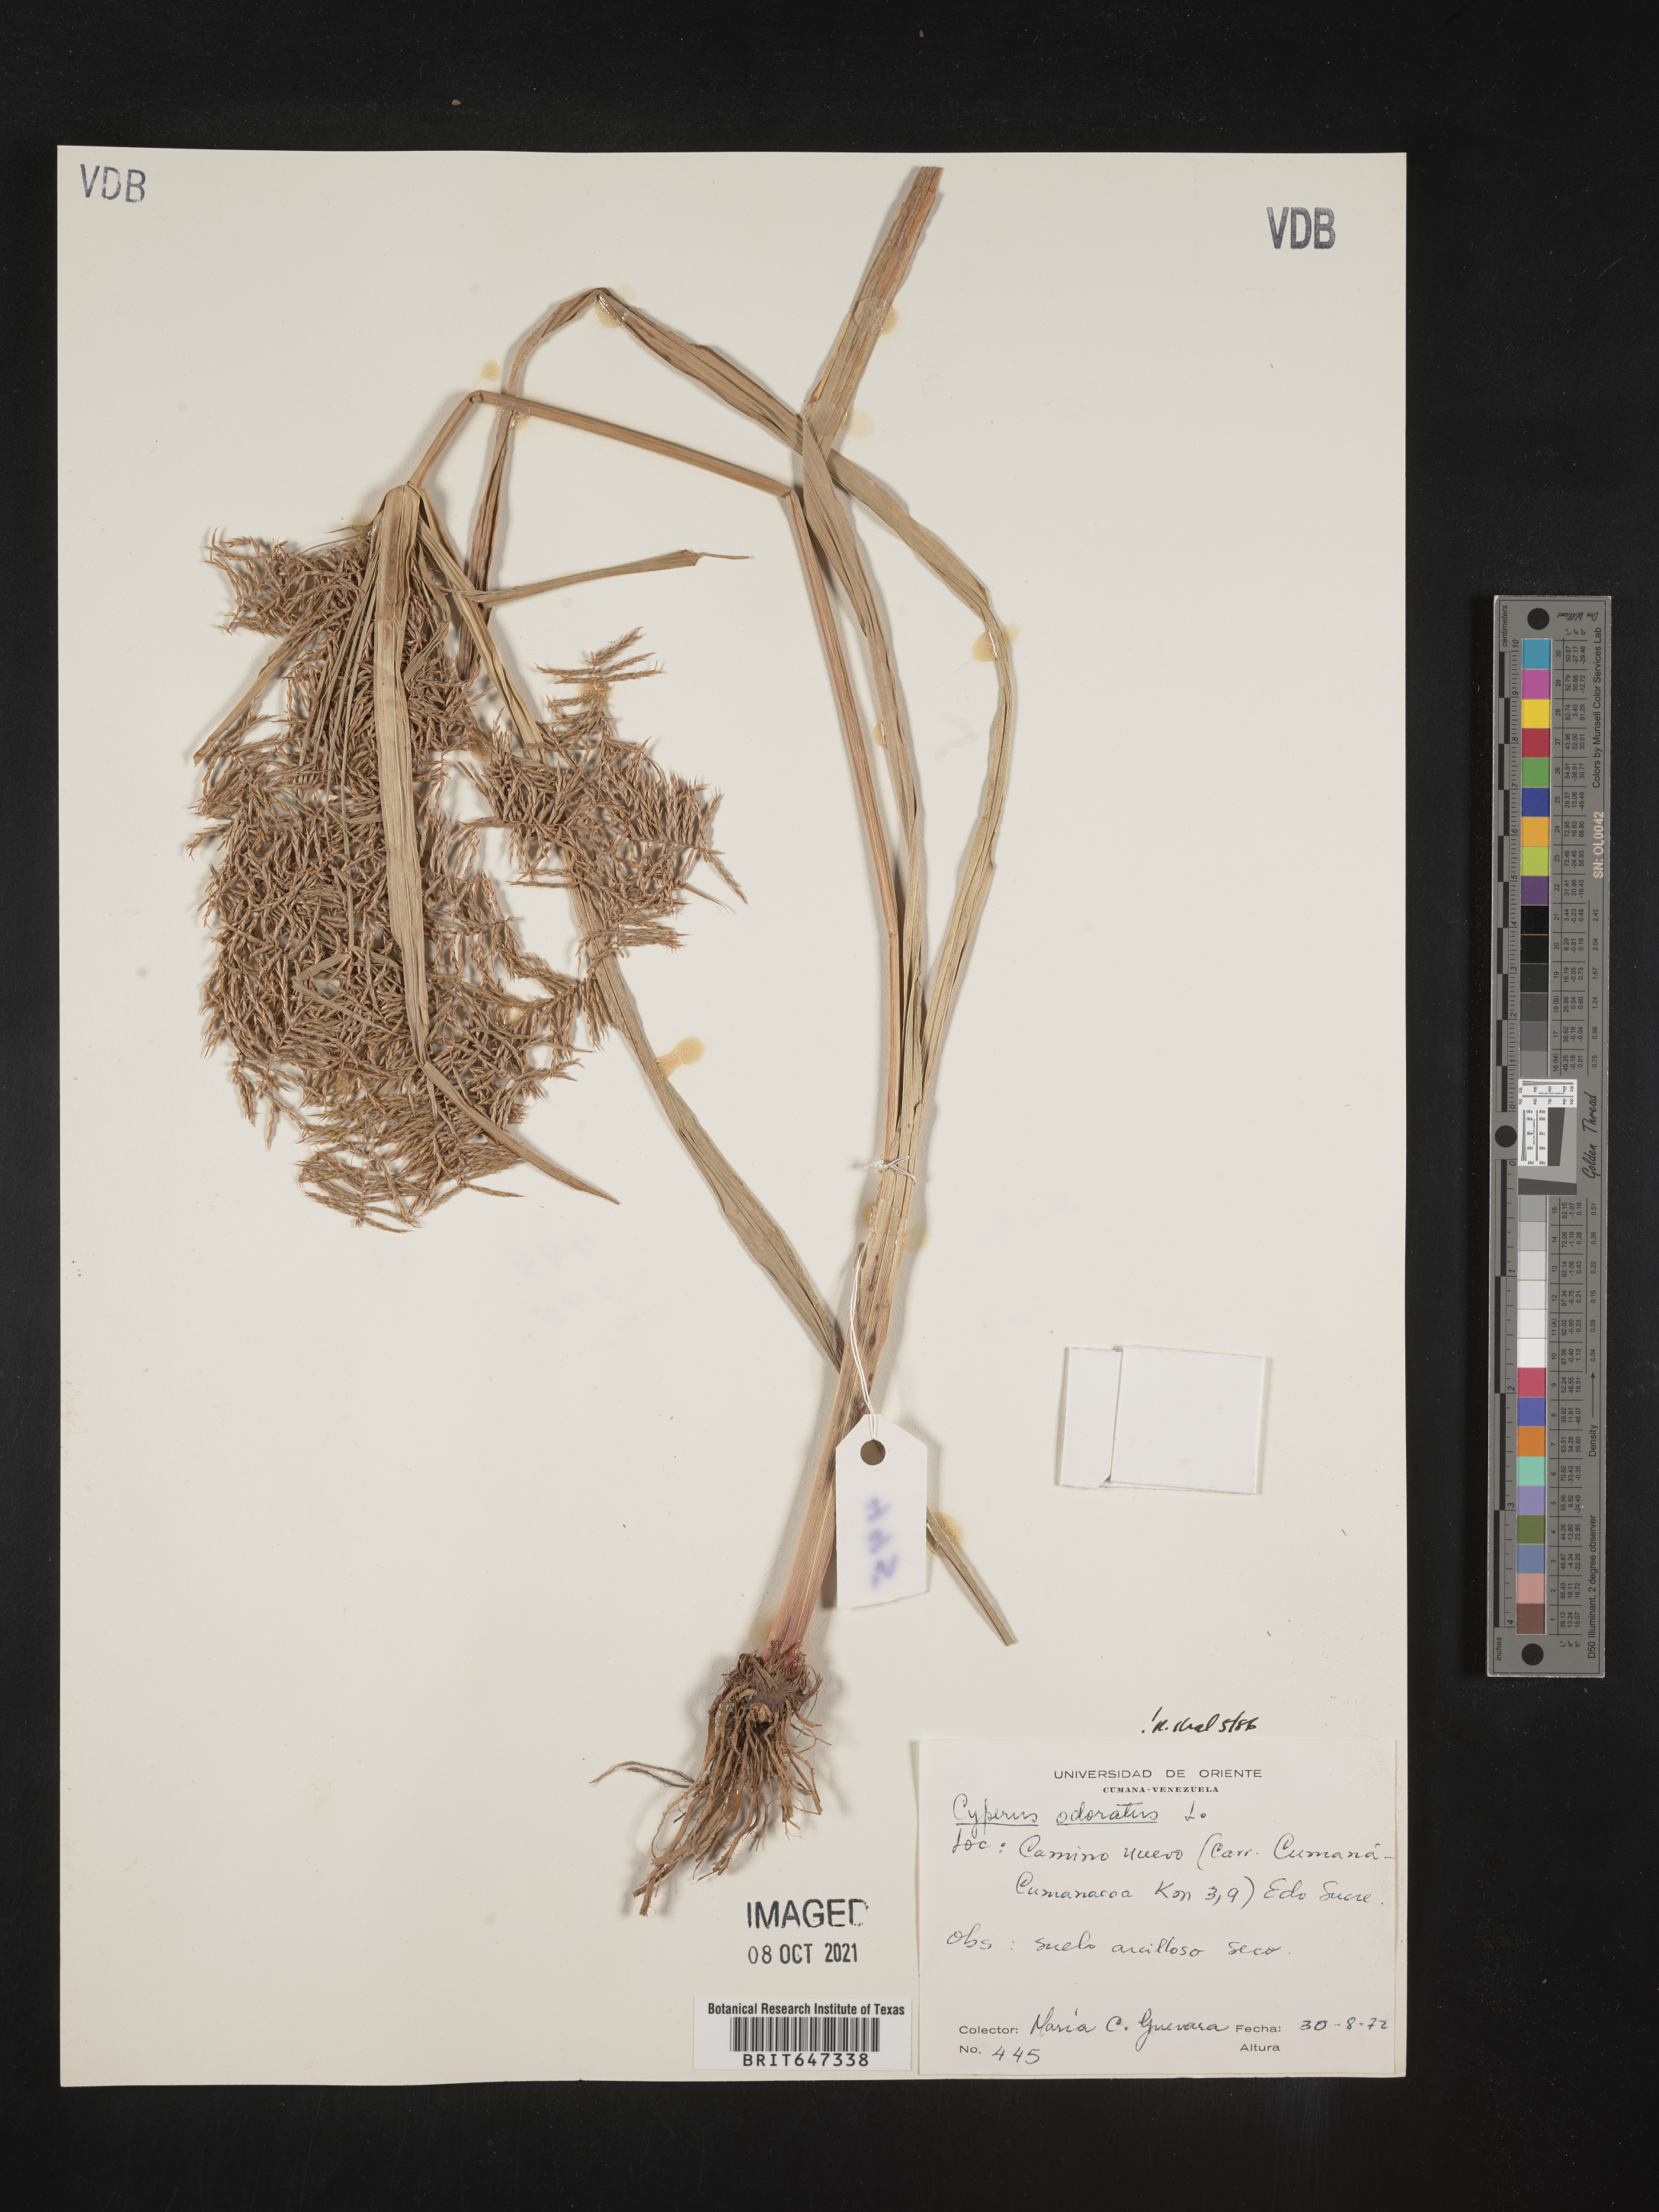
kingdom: Plantae
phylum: Tracheophyta
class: Liliopsida
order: Poales
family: Cyperaceae
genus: Cyperus
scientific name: Cyperus odoratus
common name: Fragrant flatsedge
